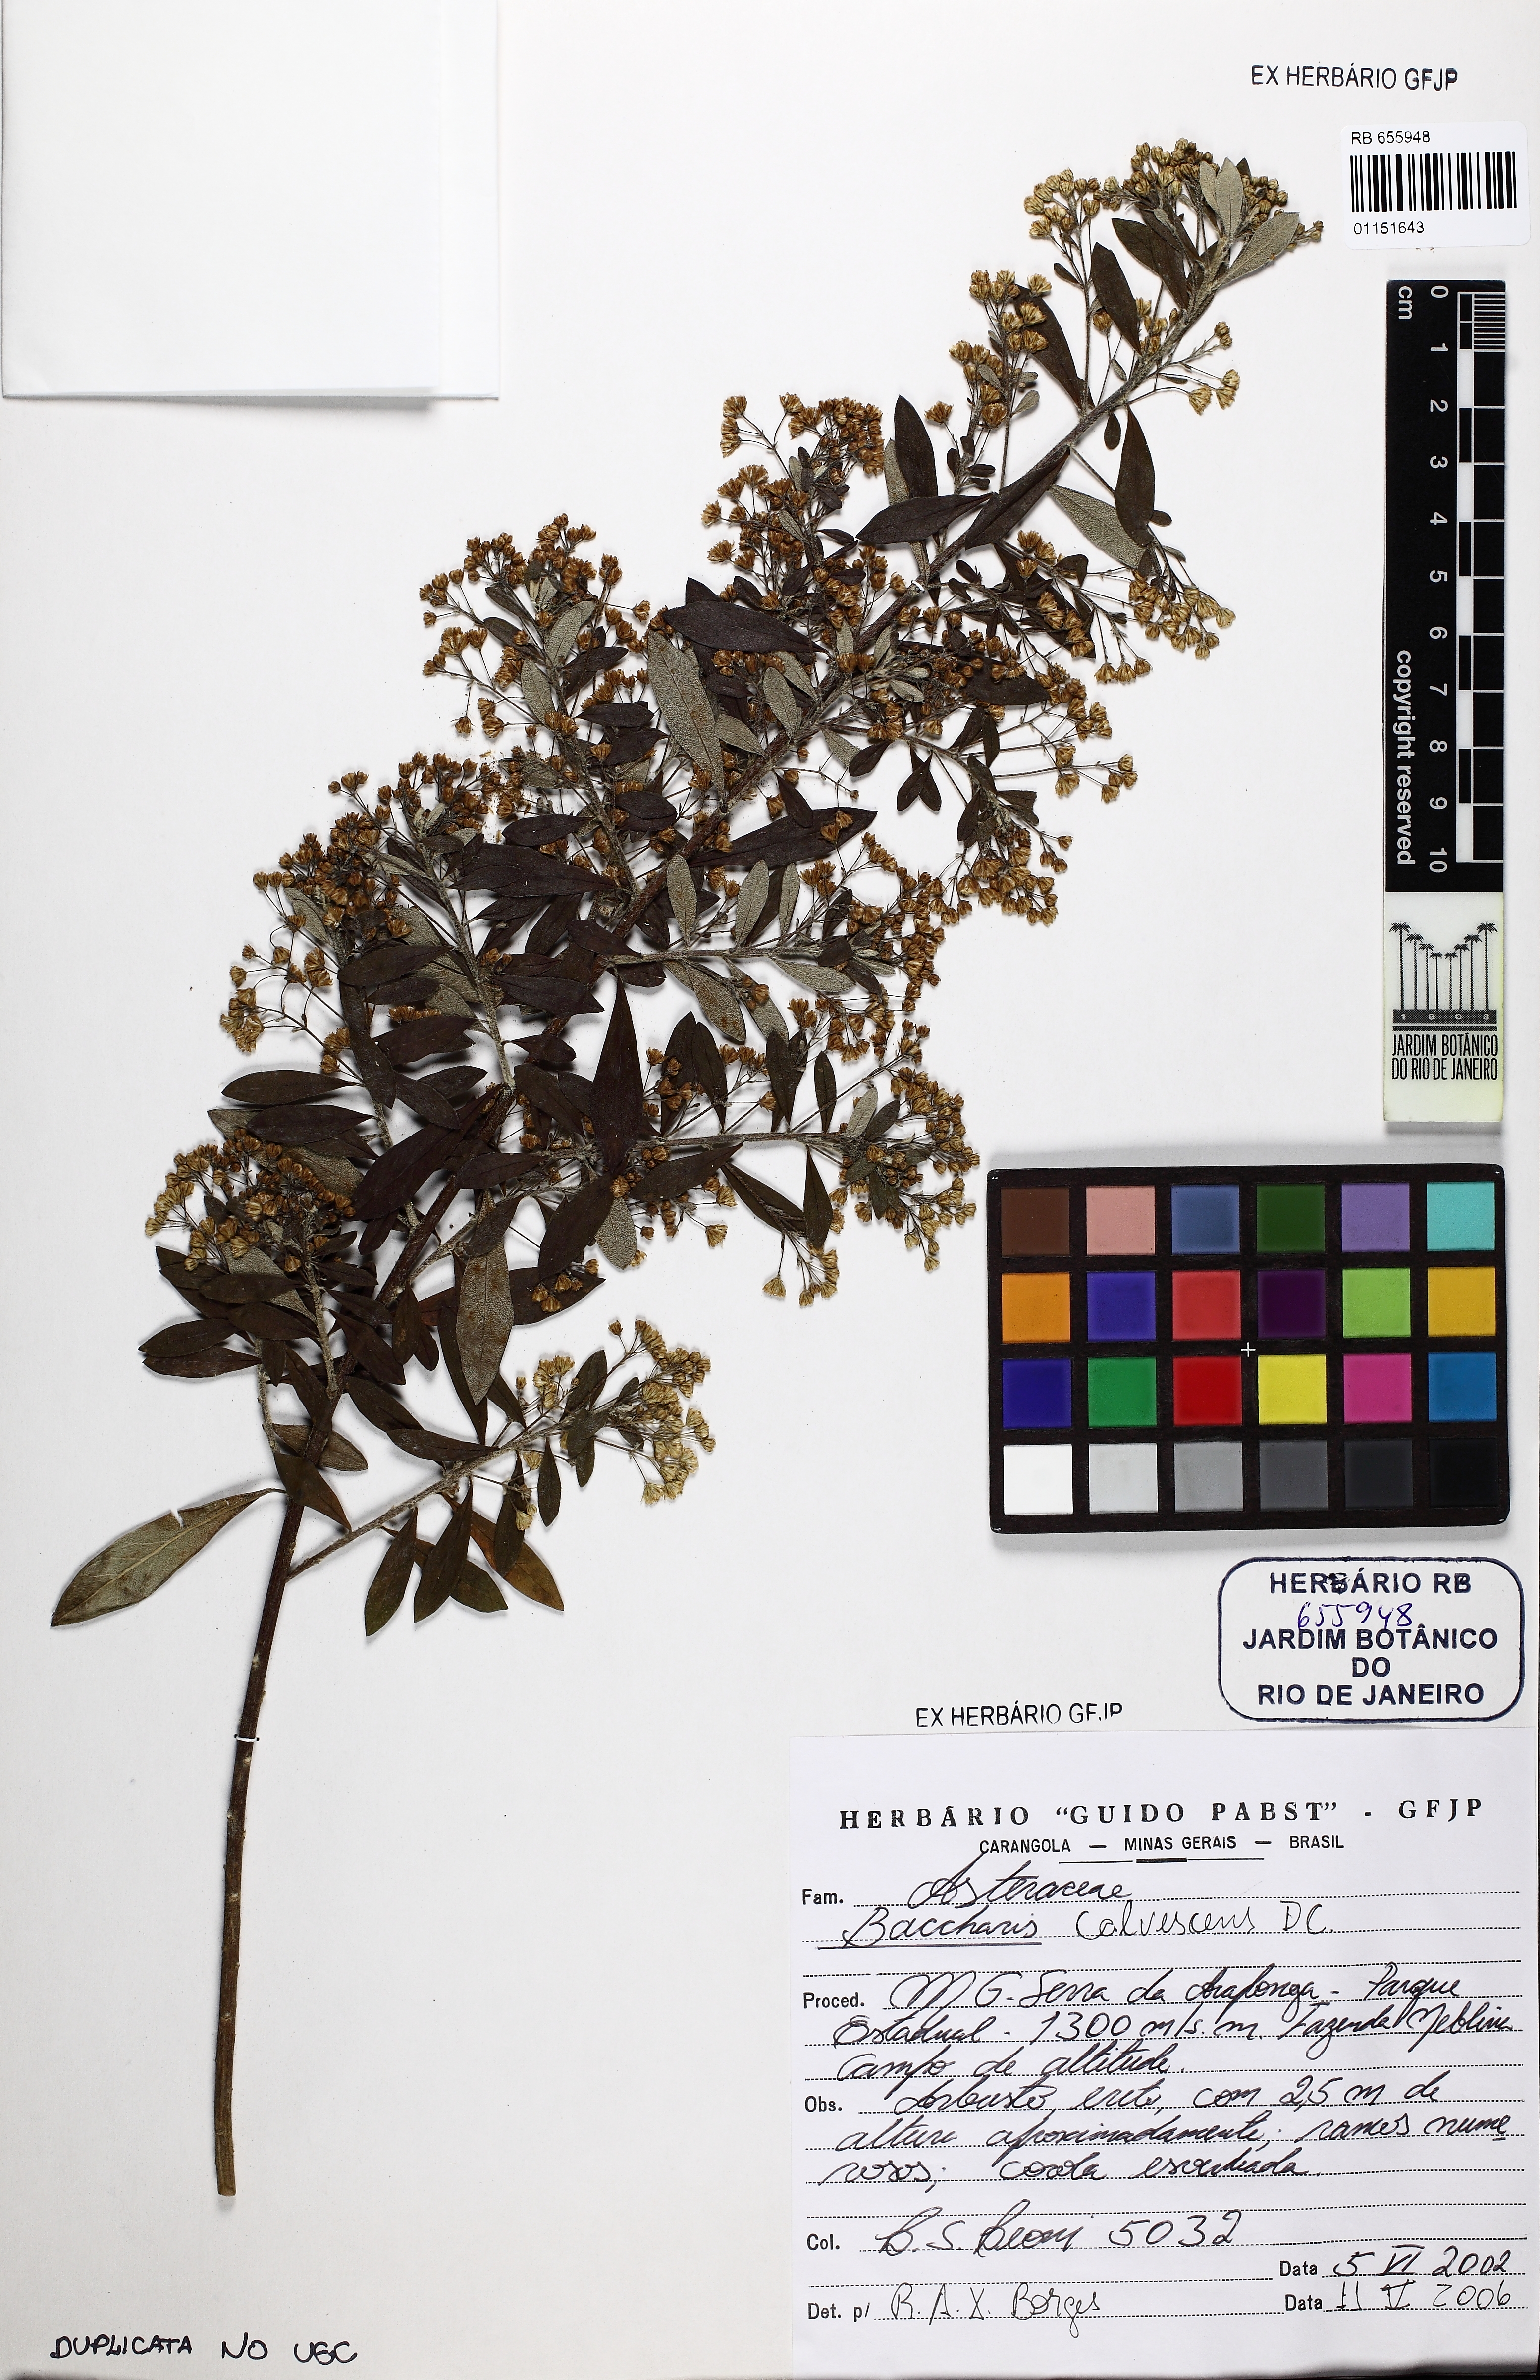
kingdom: Plantae
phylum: Tracheophyta
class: Magnoliopsida
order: Asterales
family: Asteraceae
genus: Baccharis
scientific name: Baccharis calvescens
